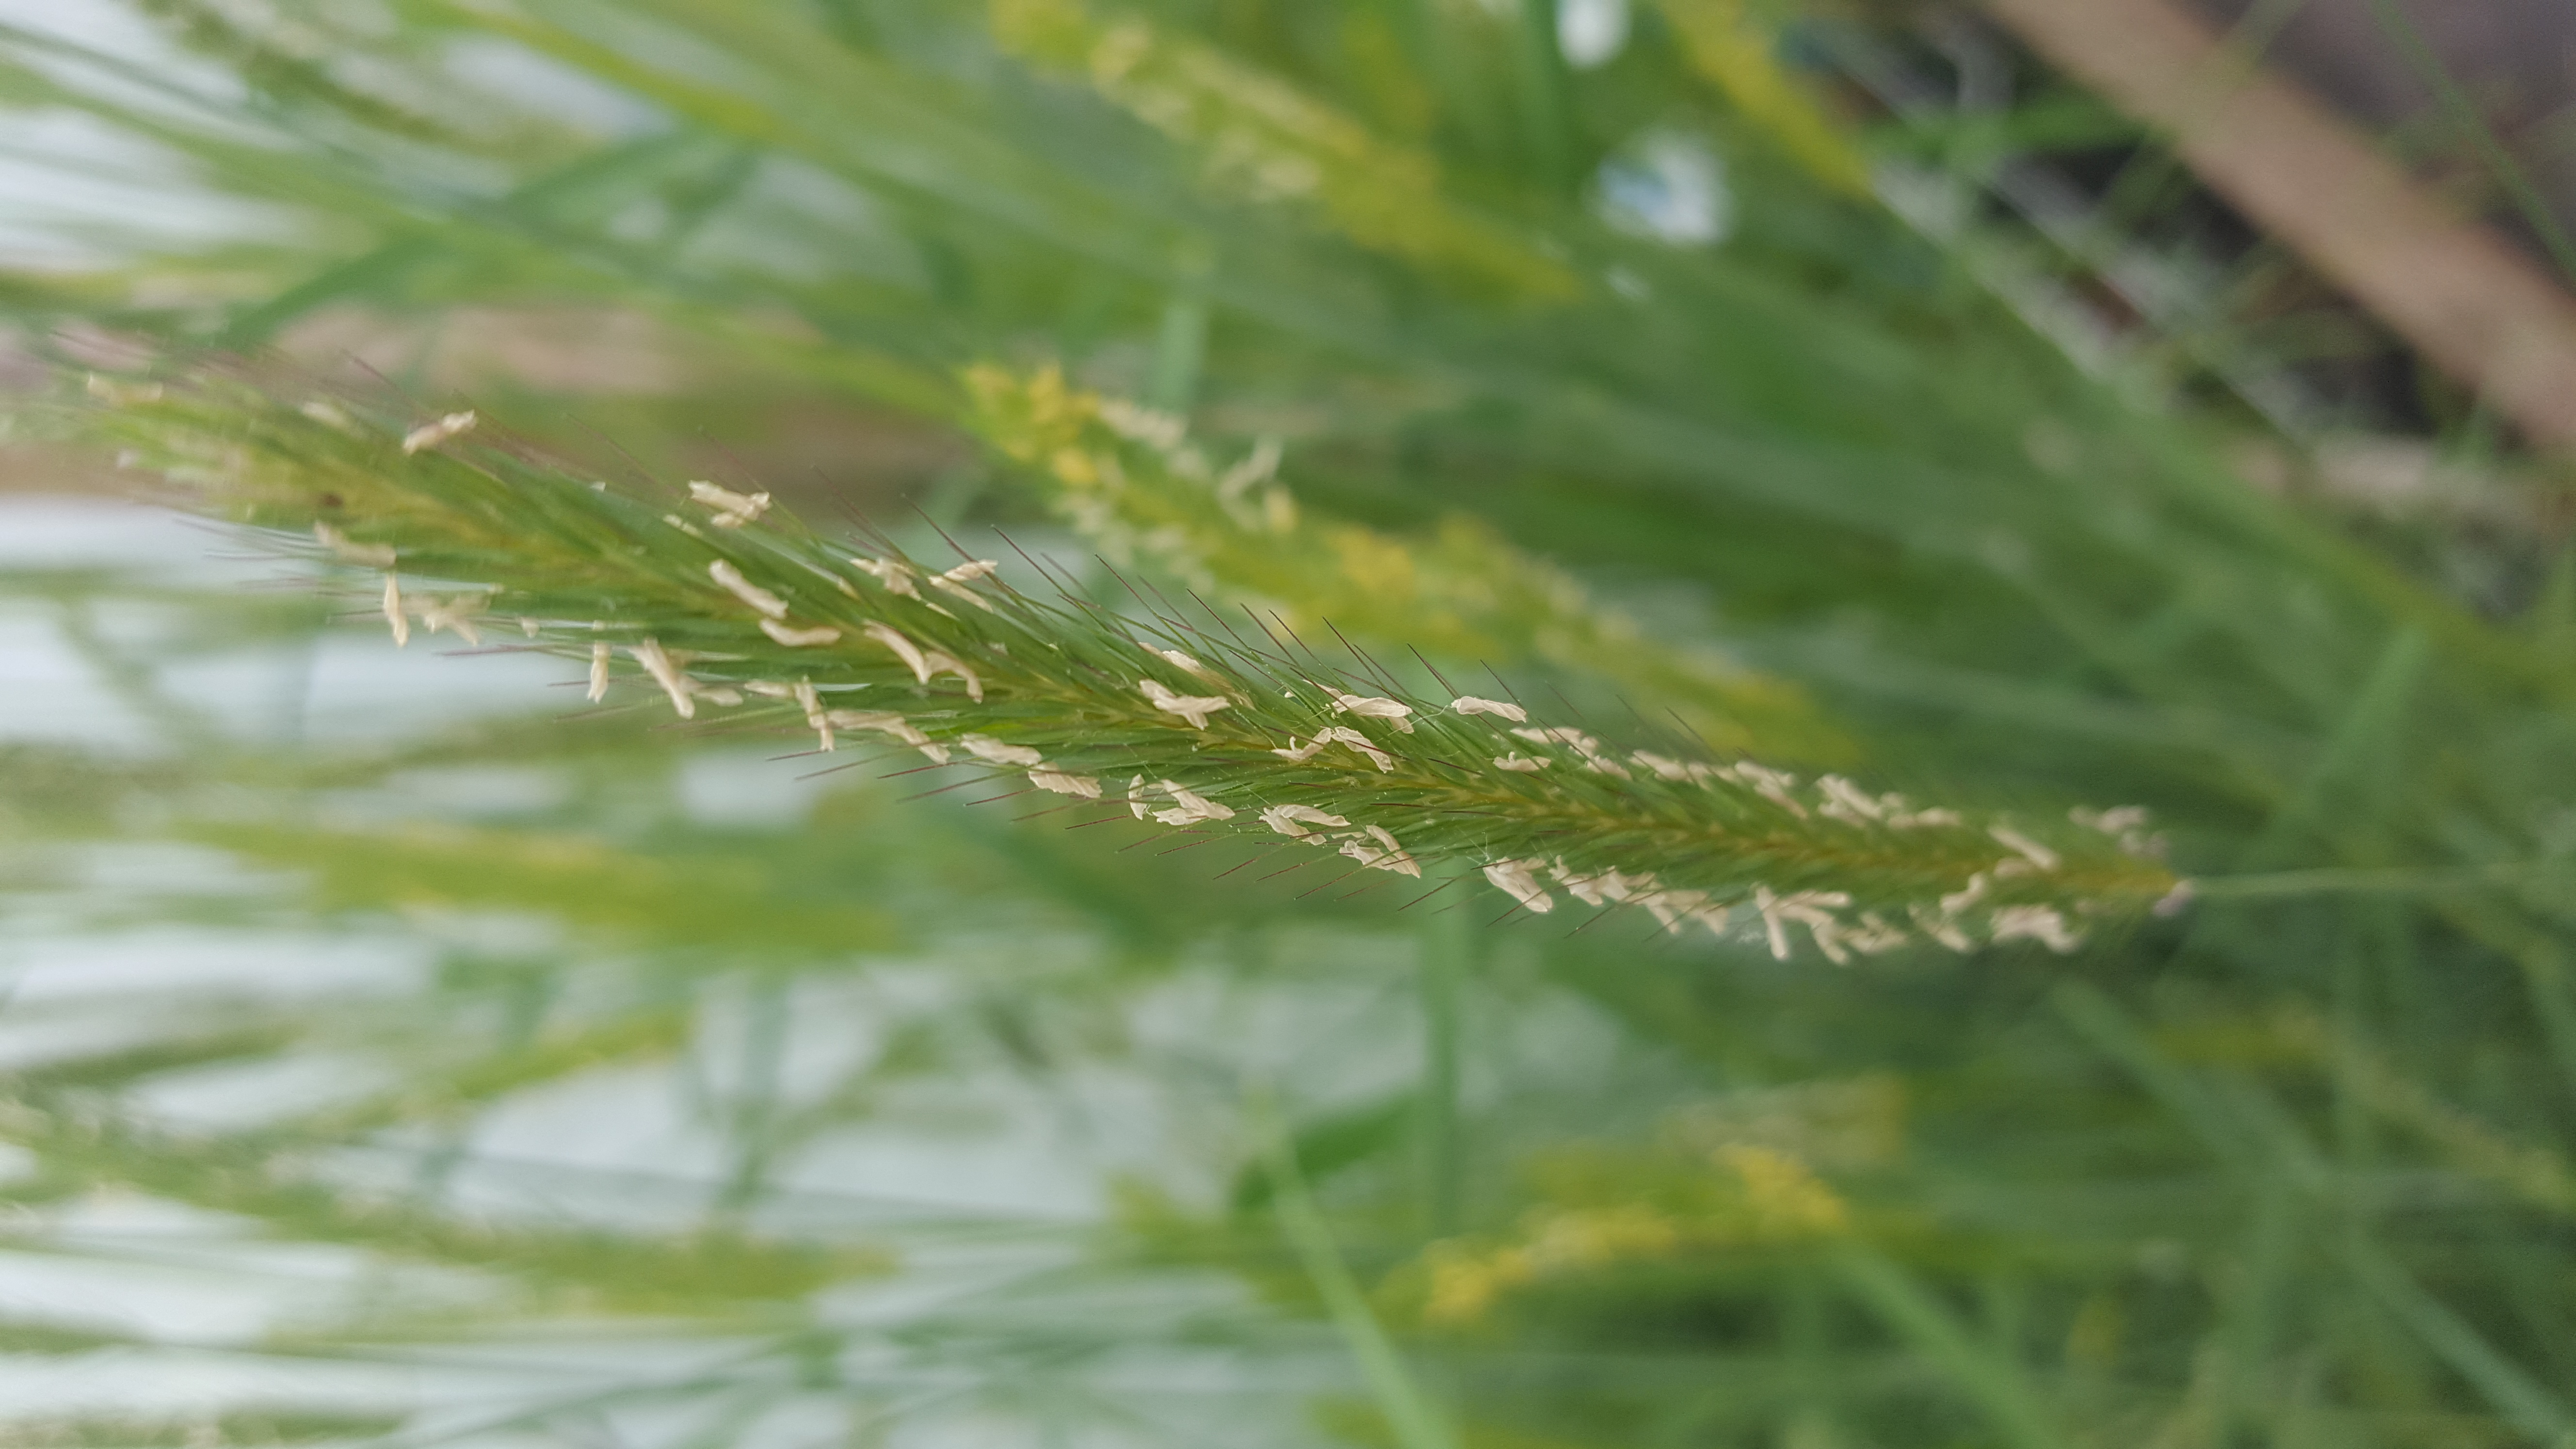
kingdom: Plantae
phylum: Tracheophyta
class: Liliopsida
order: Poales
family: Poaceae
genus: Hordeum
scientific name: Hordeum parodii
